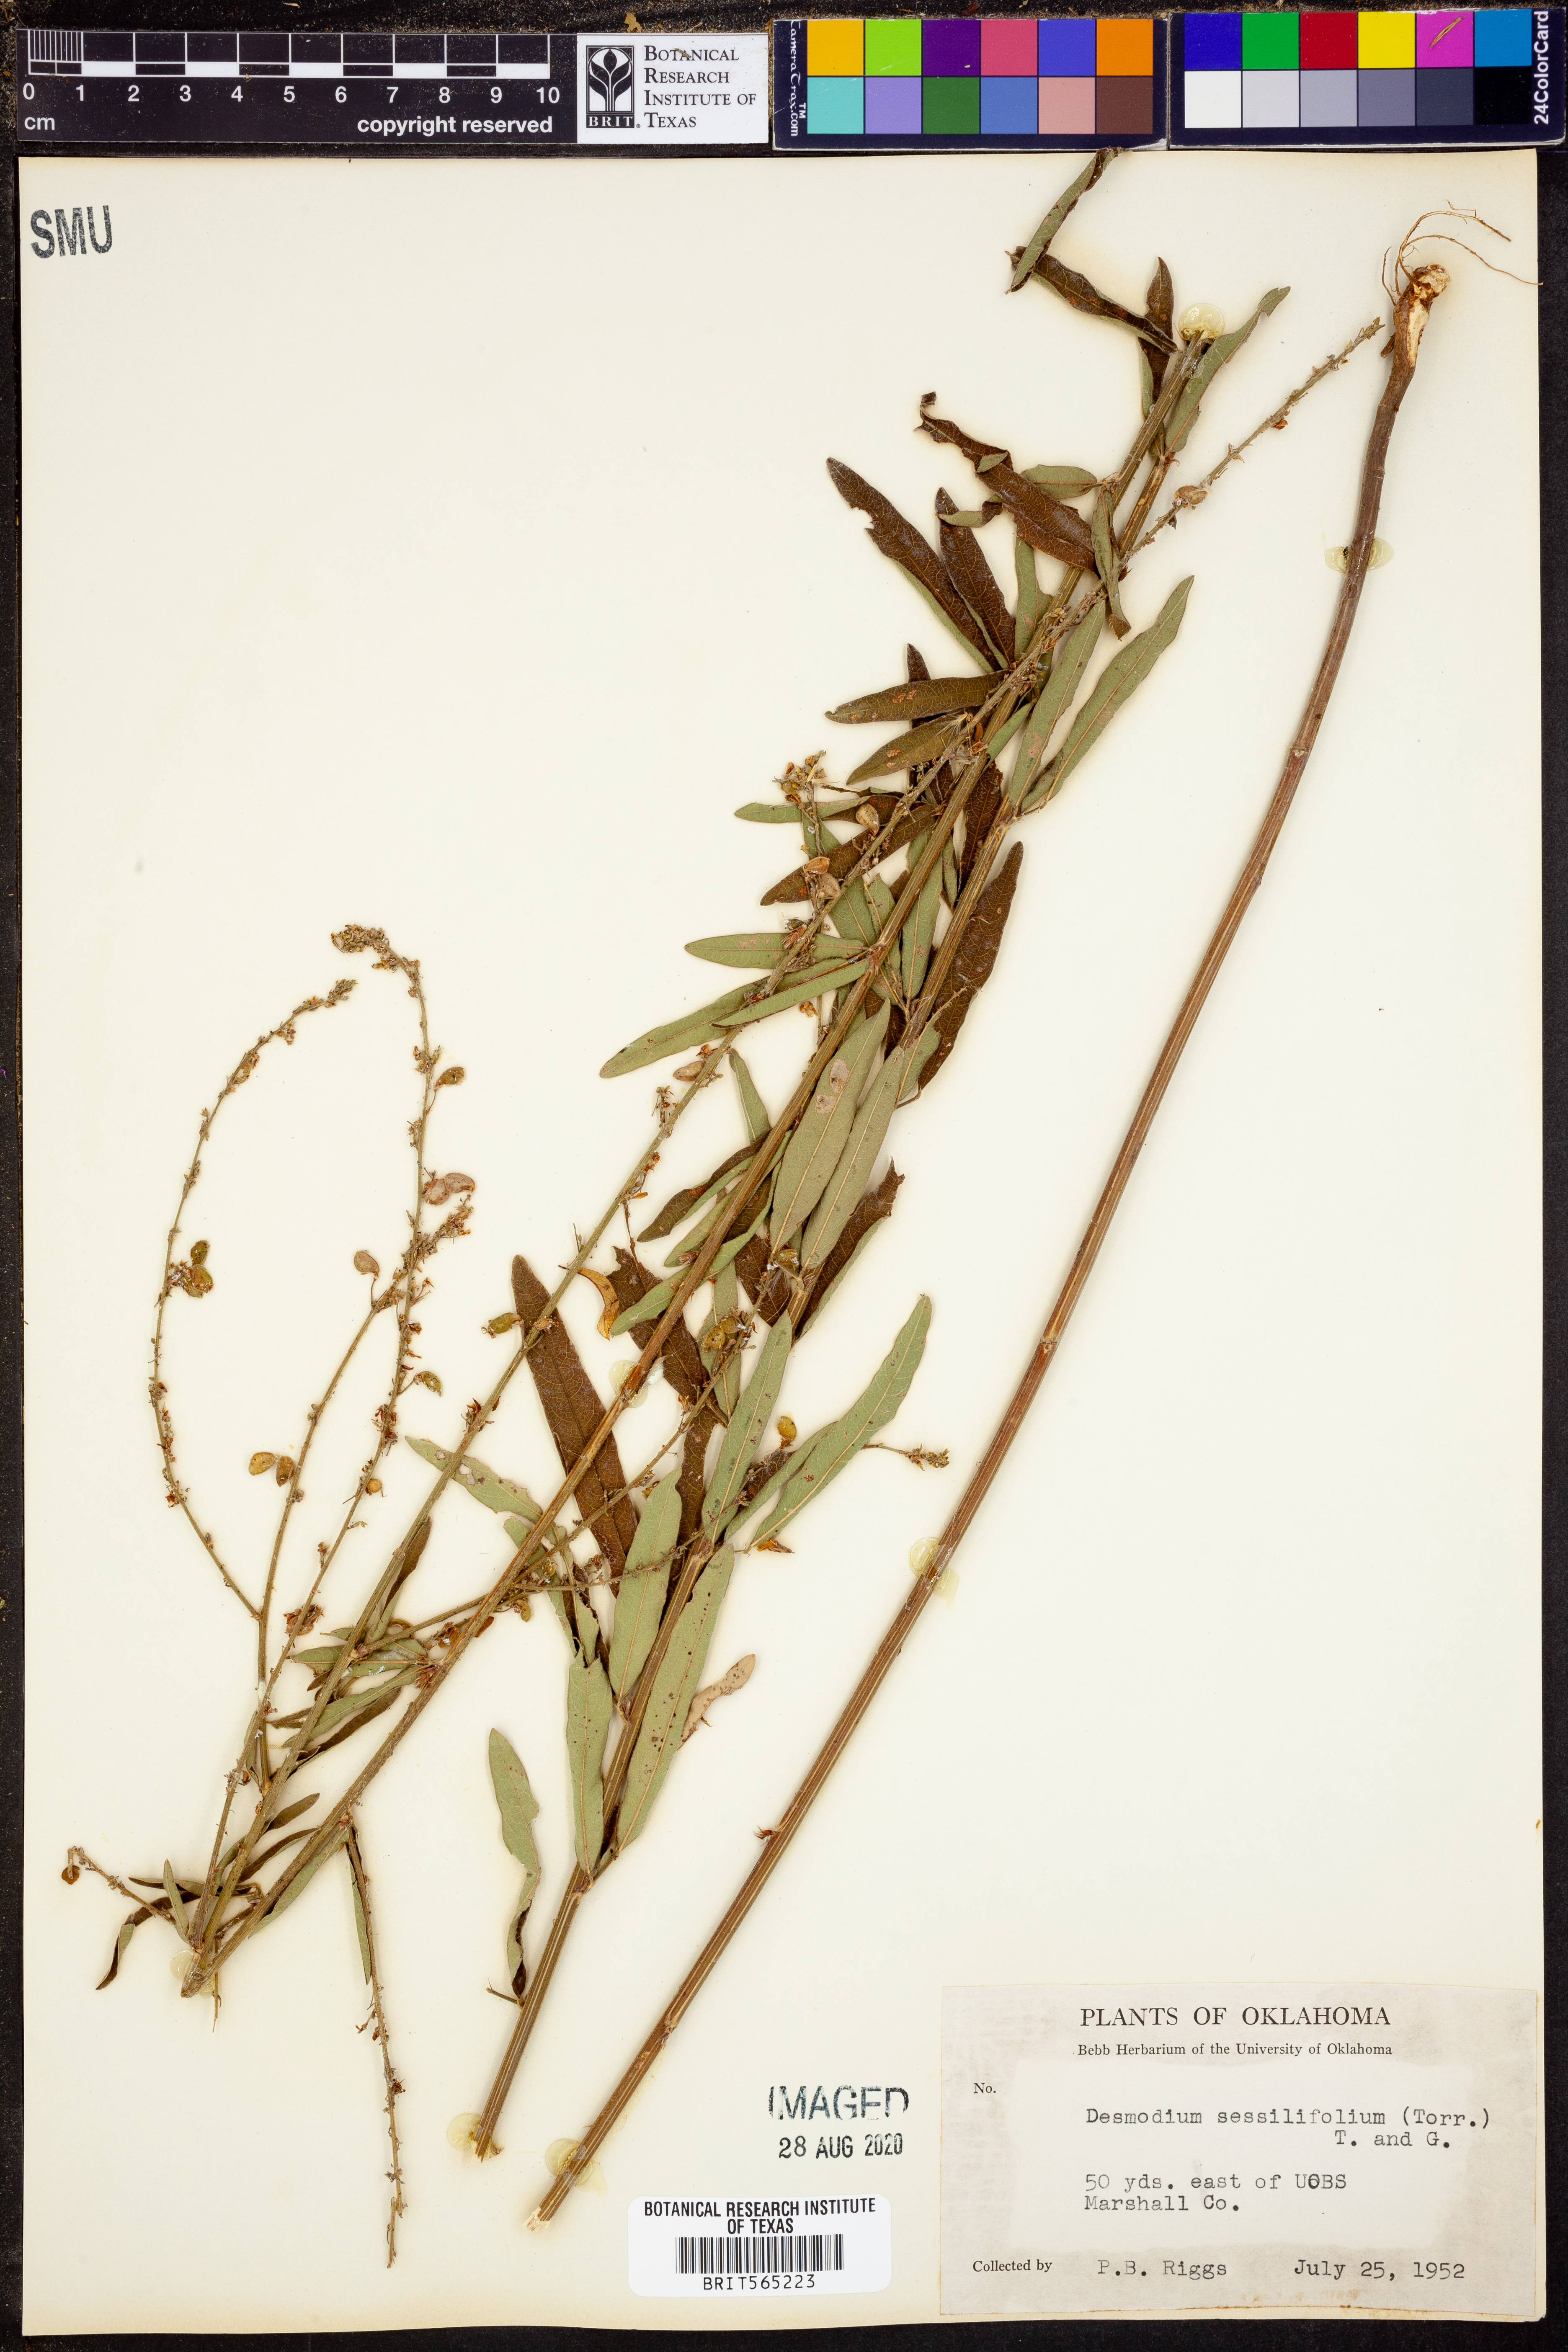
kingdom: Plantae
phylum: Tracheophyta
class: Magnoliopsida
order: Fabales
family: Fabaceae
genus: Desmodium
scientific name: Desmodium sessilifolium
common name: Sessile tick-clover
